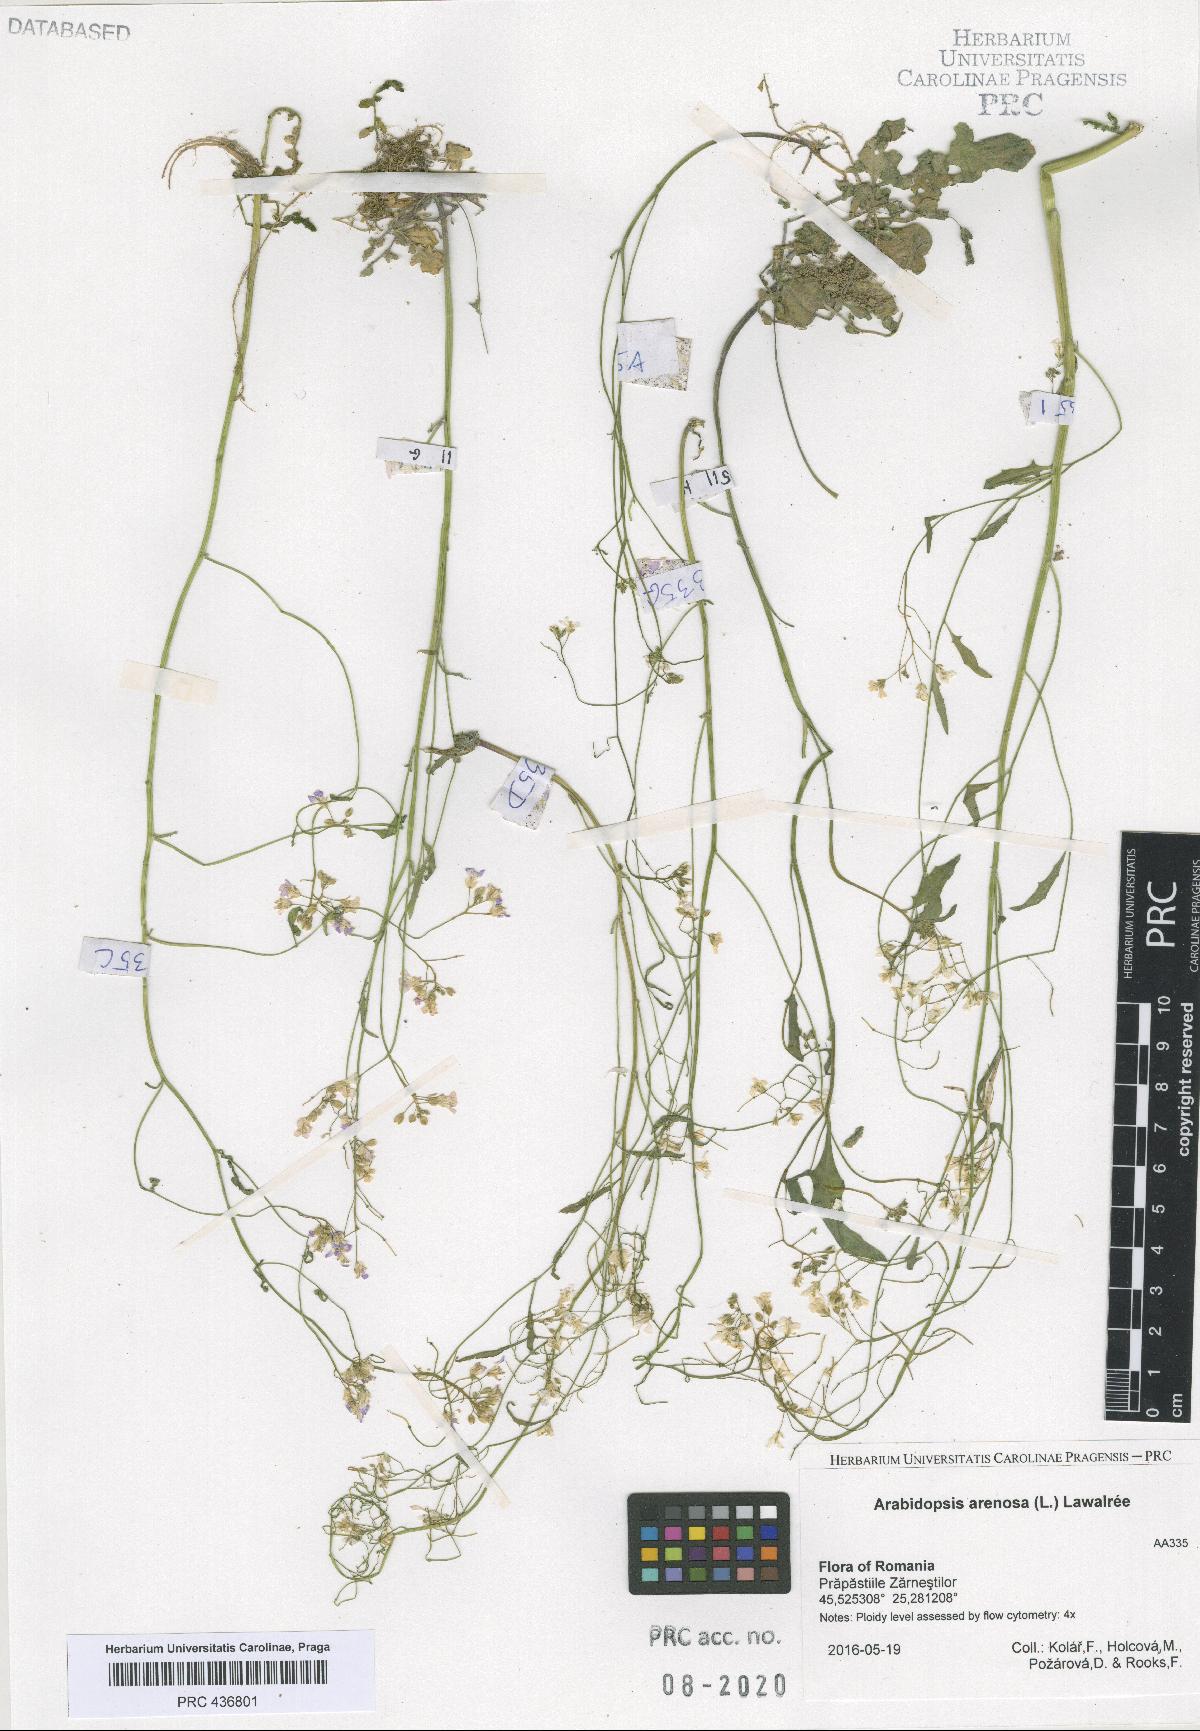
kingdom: Plantae
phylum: Tracheophyta
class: Magnoliopsida
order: Brassicales
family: Brassicaceae
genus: Arabidopsis
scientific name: Arabidopsis arenosa
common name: Sand rock-cress
